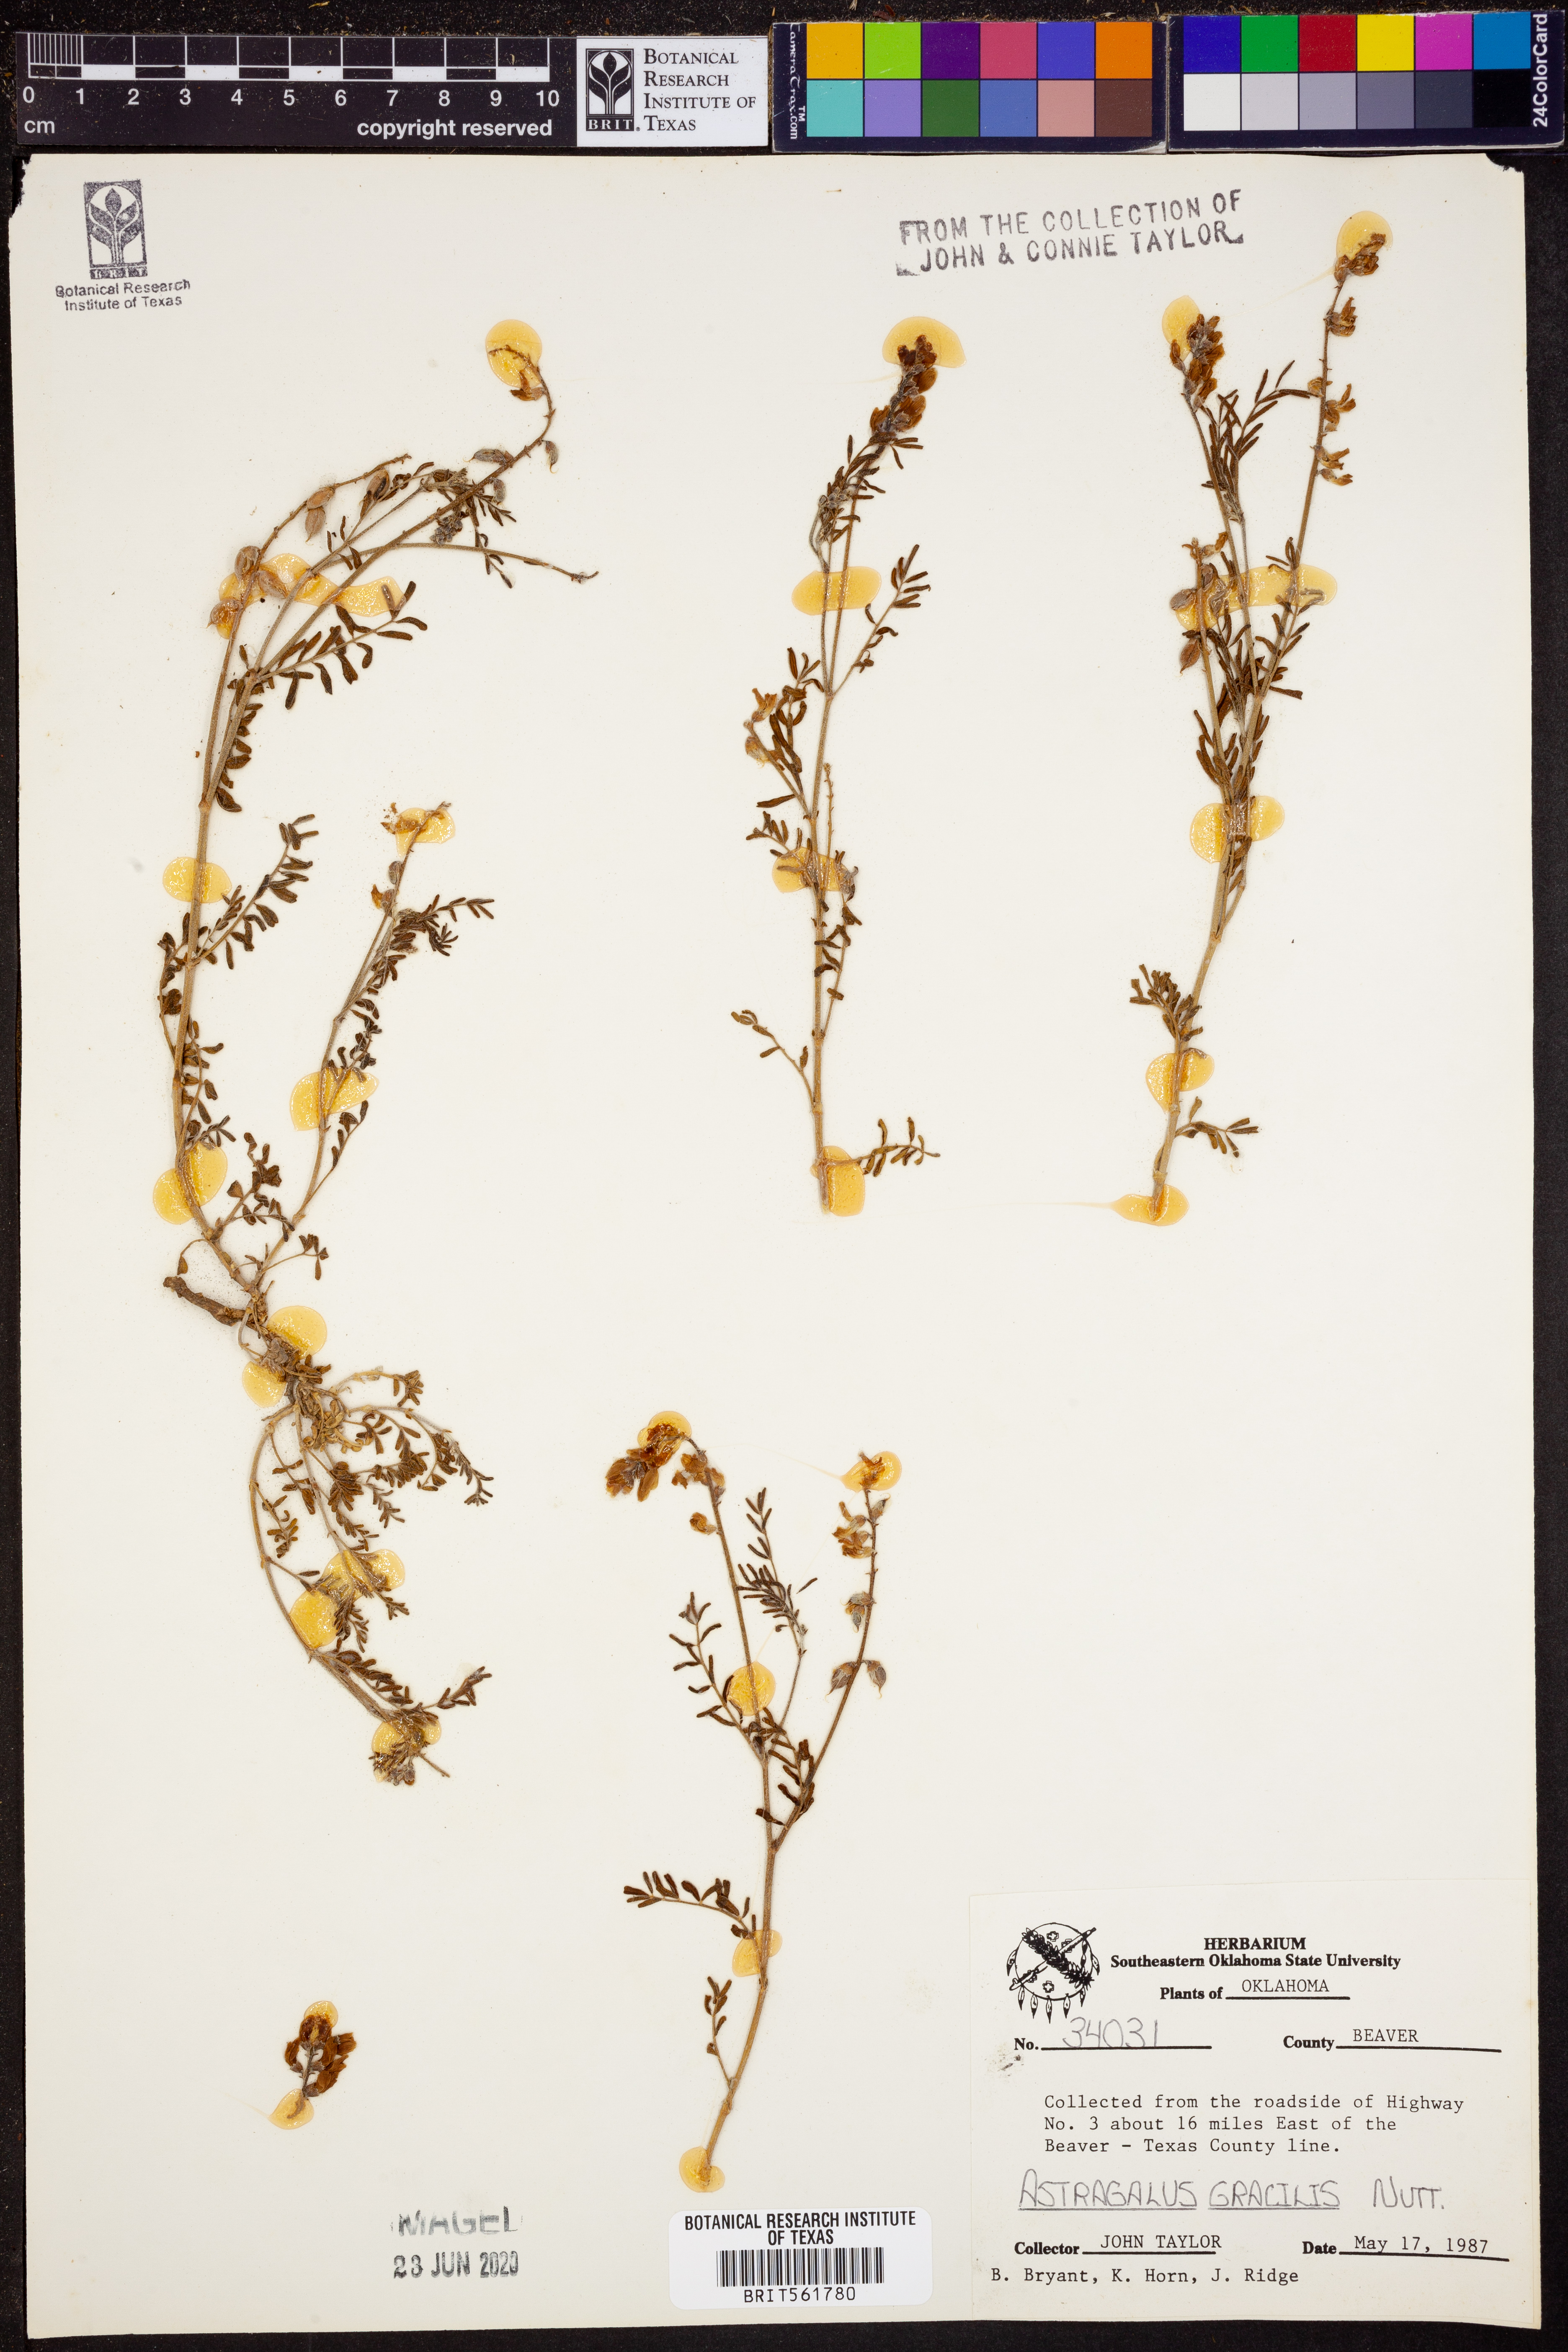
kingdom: Plantae
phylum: Tracheophyta
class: Magnoliopsida
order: Fabales
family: Fabaceae
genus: Astragalus
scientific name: Astragalus gracilis
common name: Slender milk-vetch
